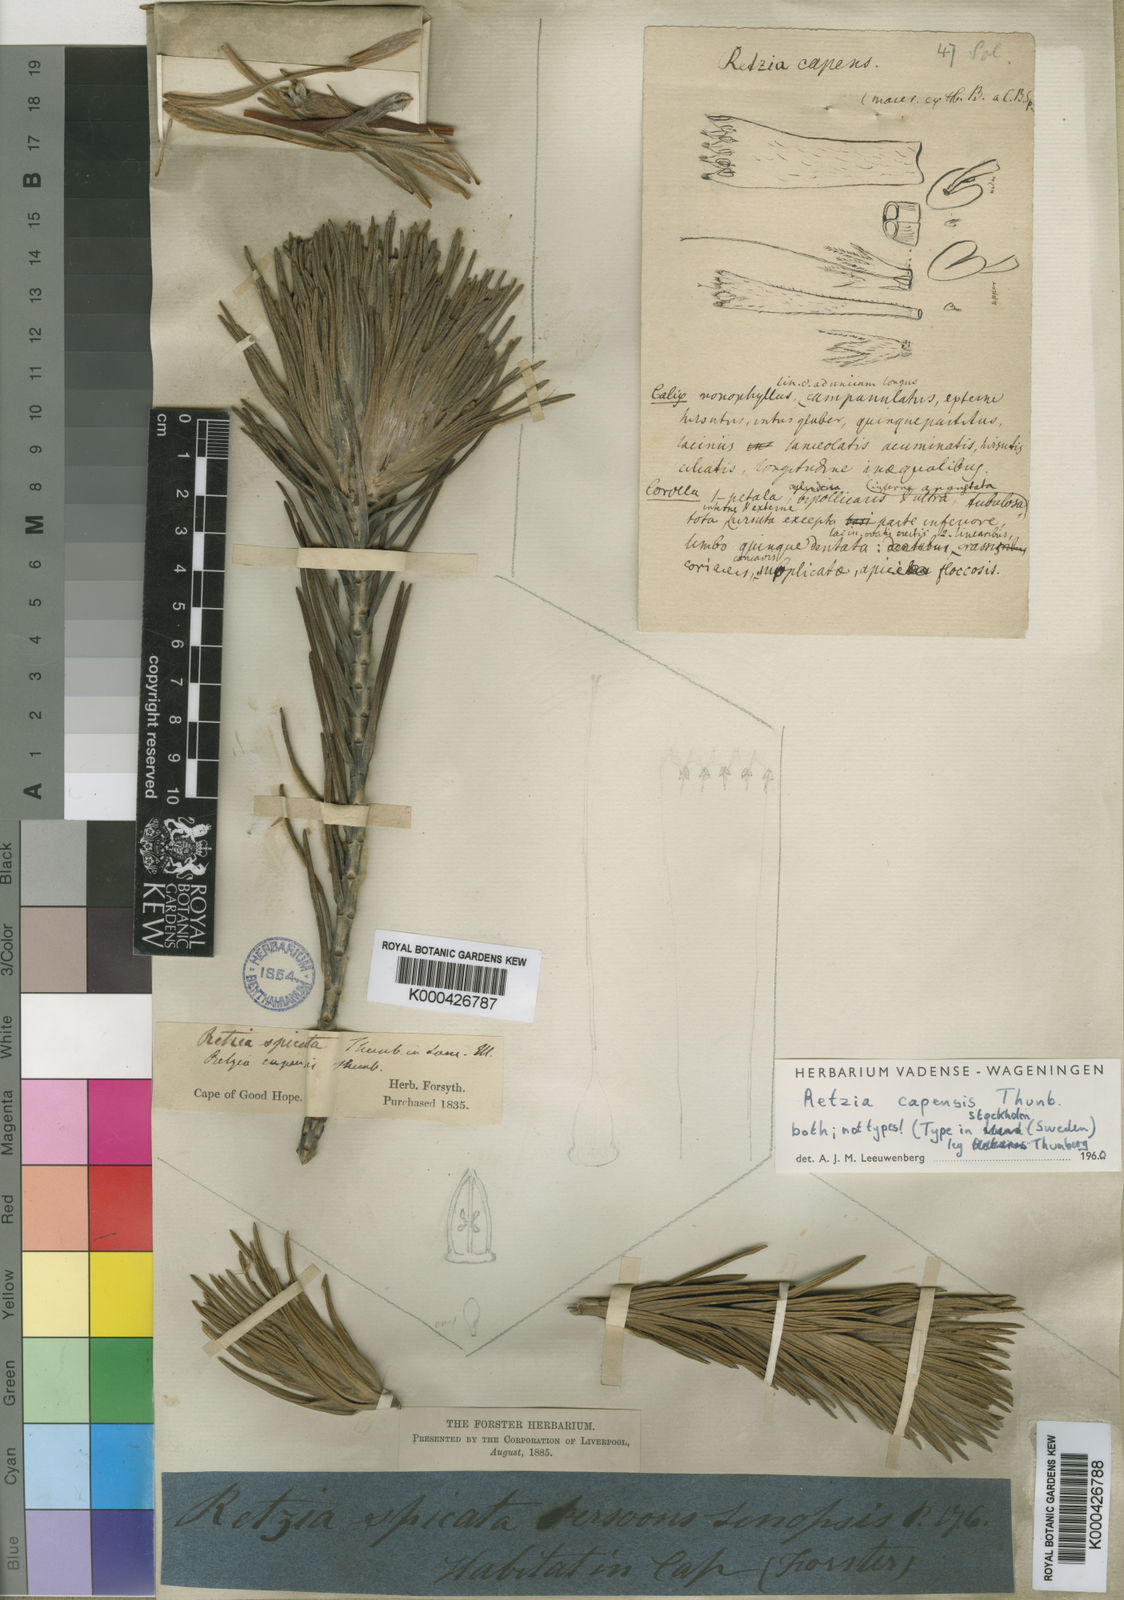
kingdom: Plantae
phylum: Tracheophyta
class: Magnoliopsida
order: Lamiales
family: Stilbaceae
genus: Retzia
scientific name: Retzia capensis
